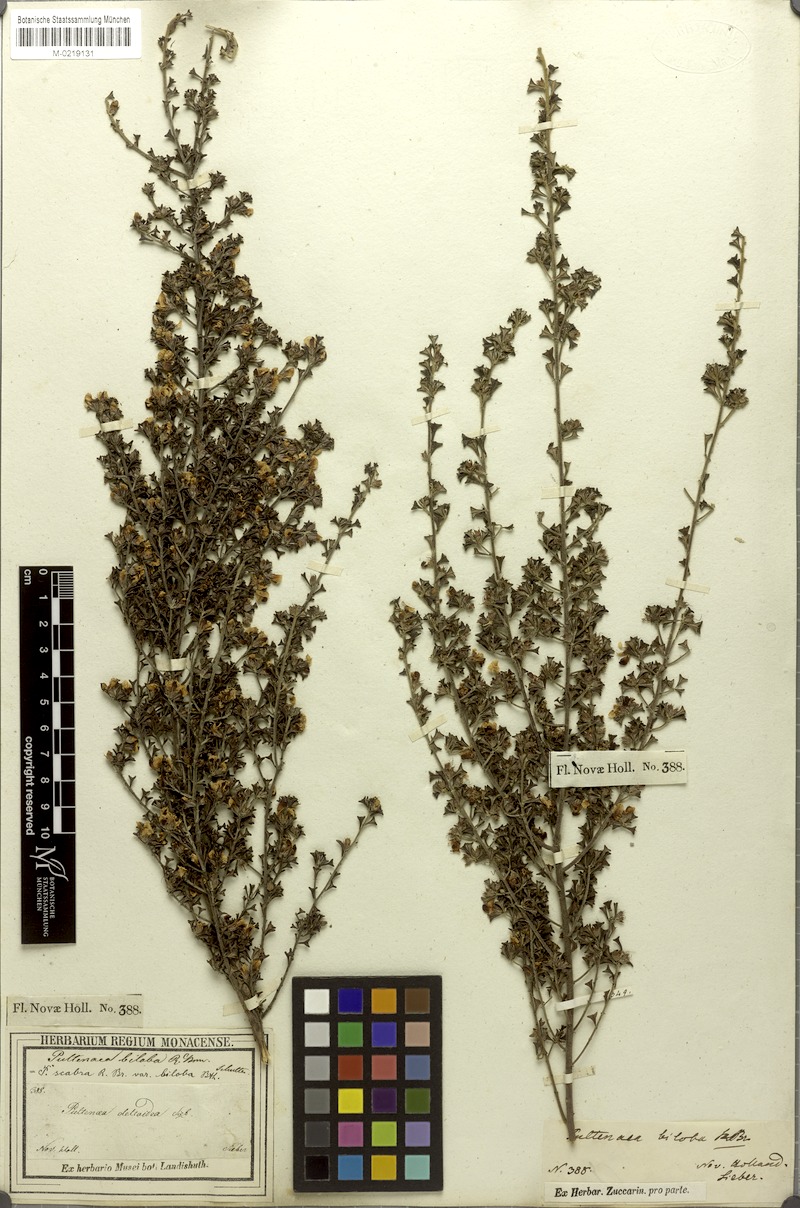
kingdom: Plantae
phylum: Tracheophyta
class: Magnoliopsida
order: Fabales
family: Fabaceae
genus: Pultenaea
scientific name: Pultenaea scabra
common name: Rough bush-pea
